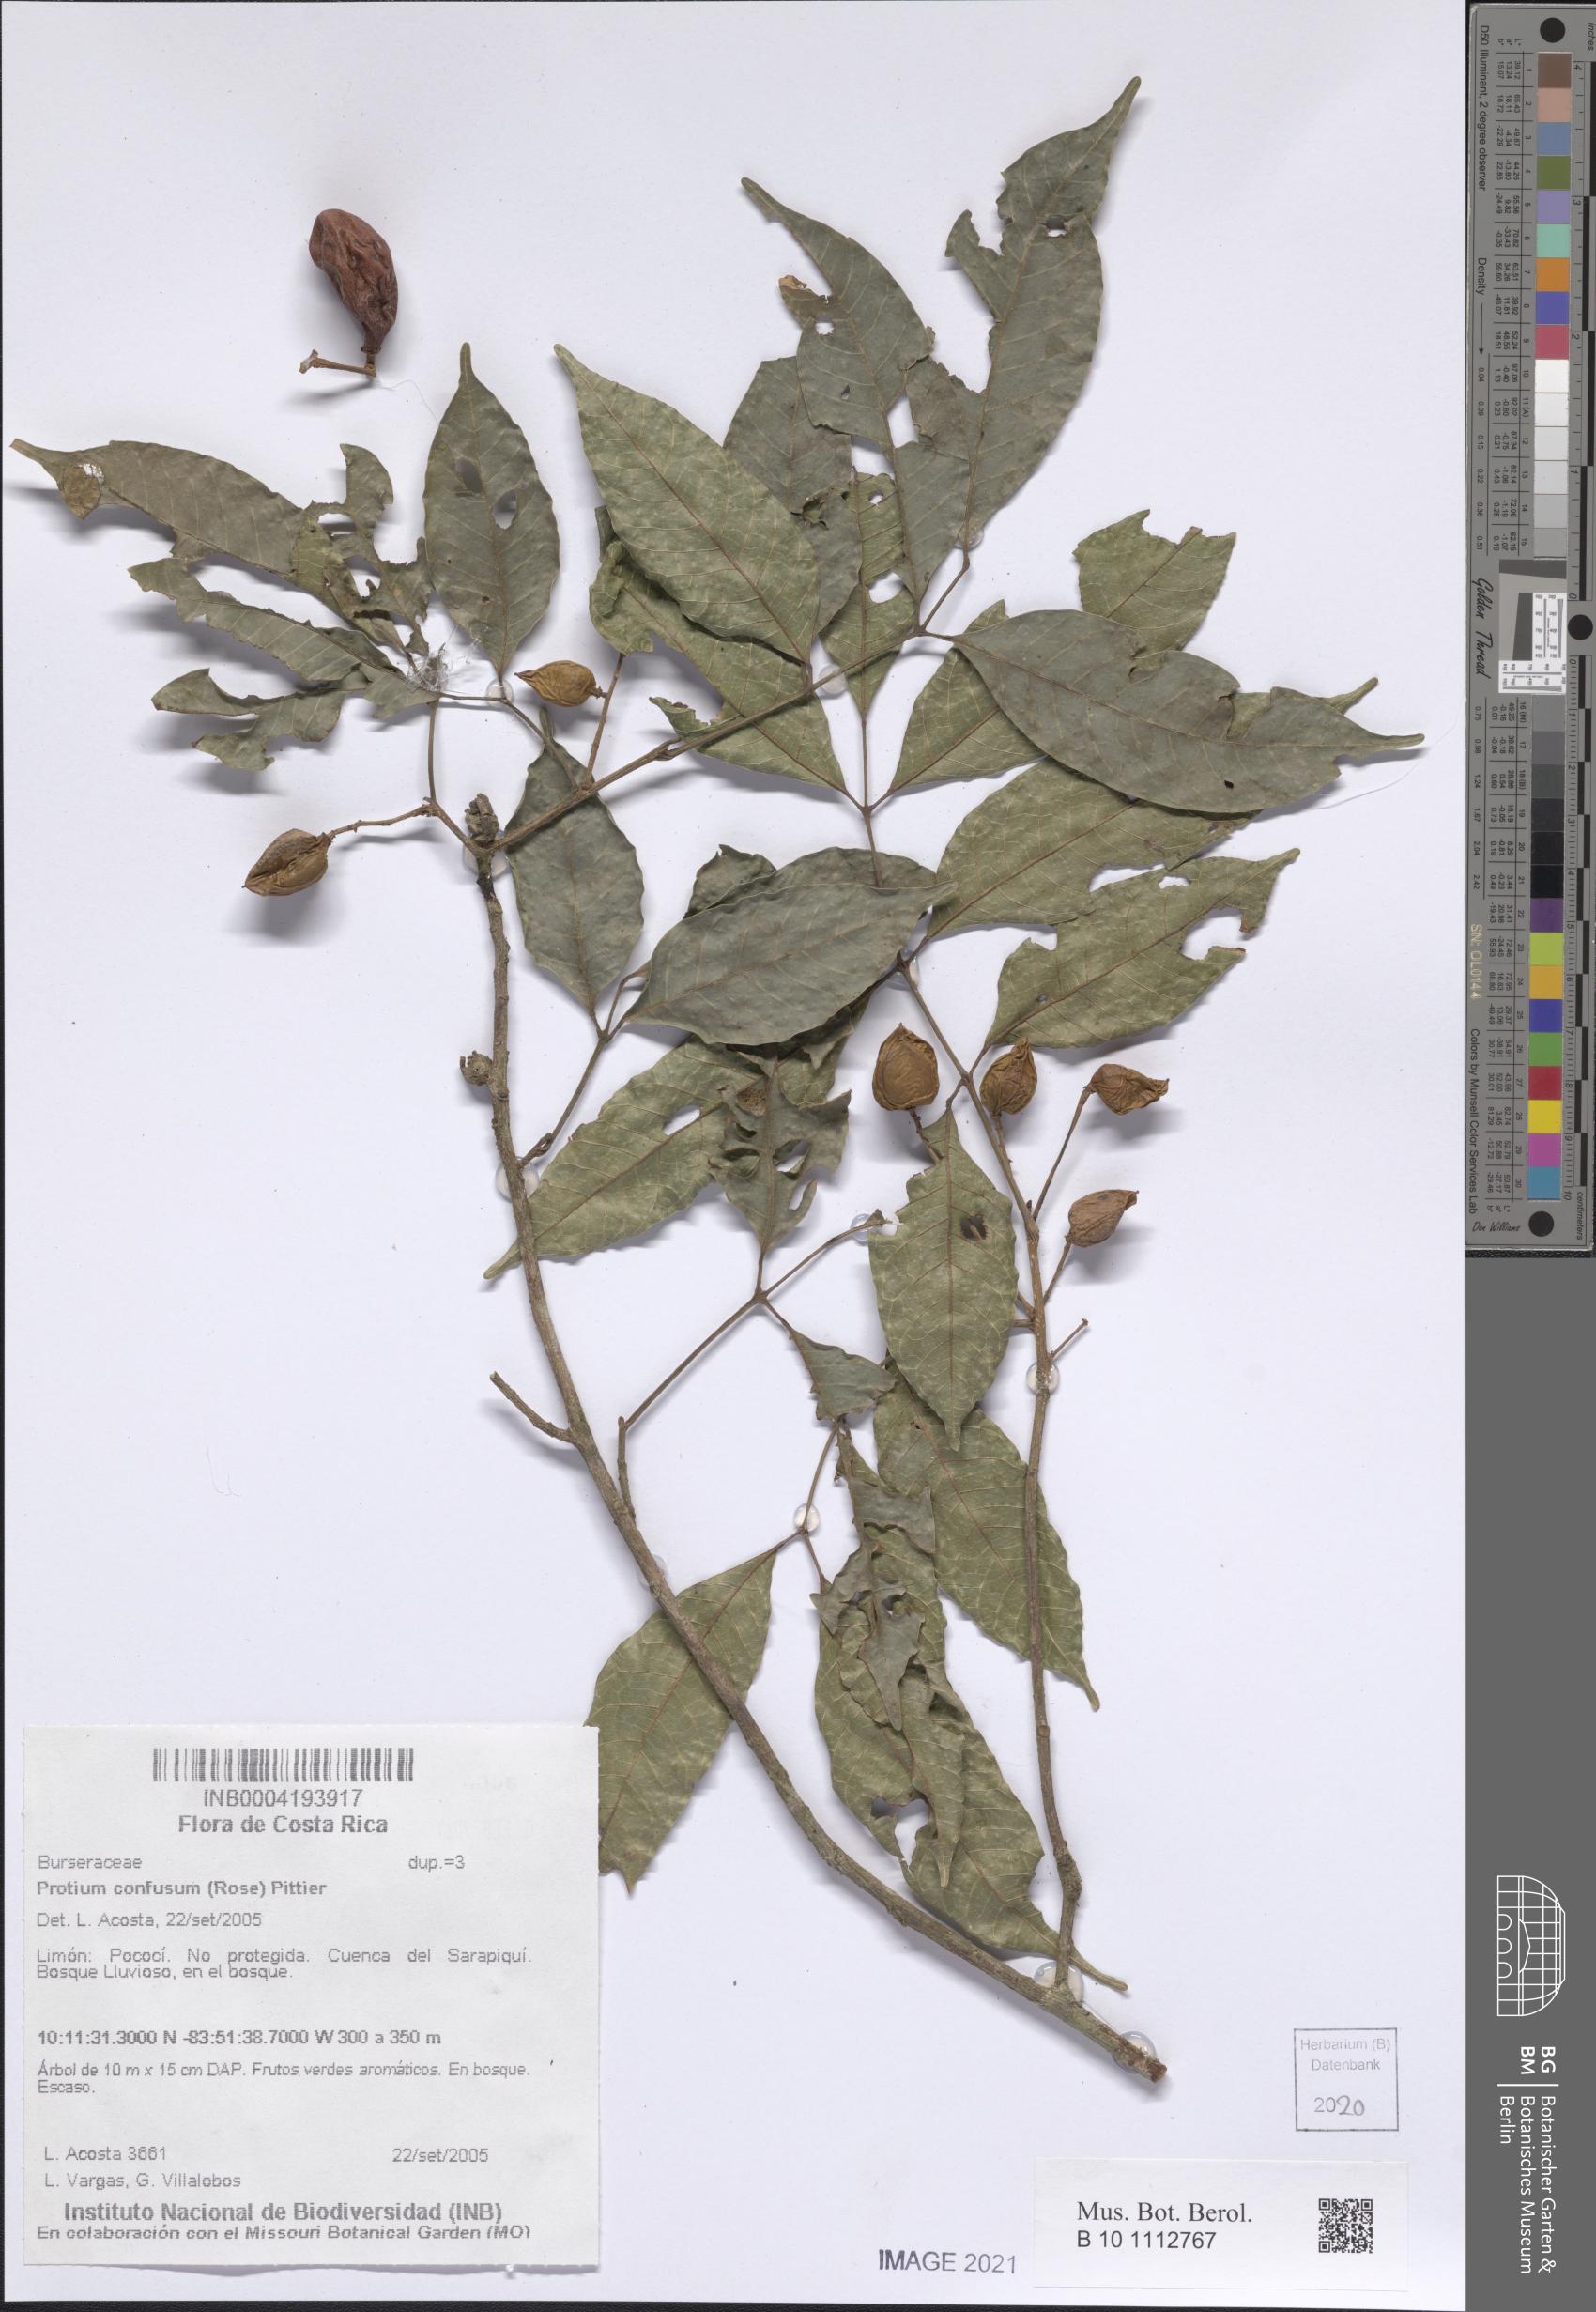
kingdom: Plantae
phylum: Tracheophyta
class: Magnoliopsida
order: Sapindales
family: Burseraceae
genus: Protium
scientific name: Protium confusum
